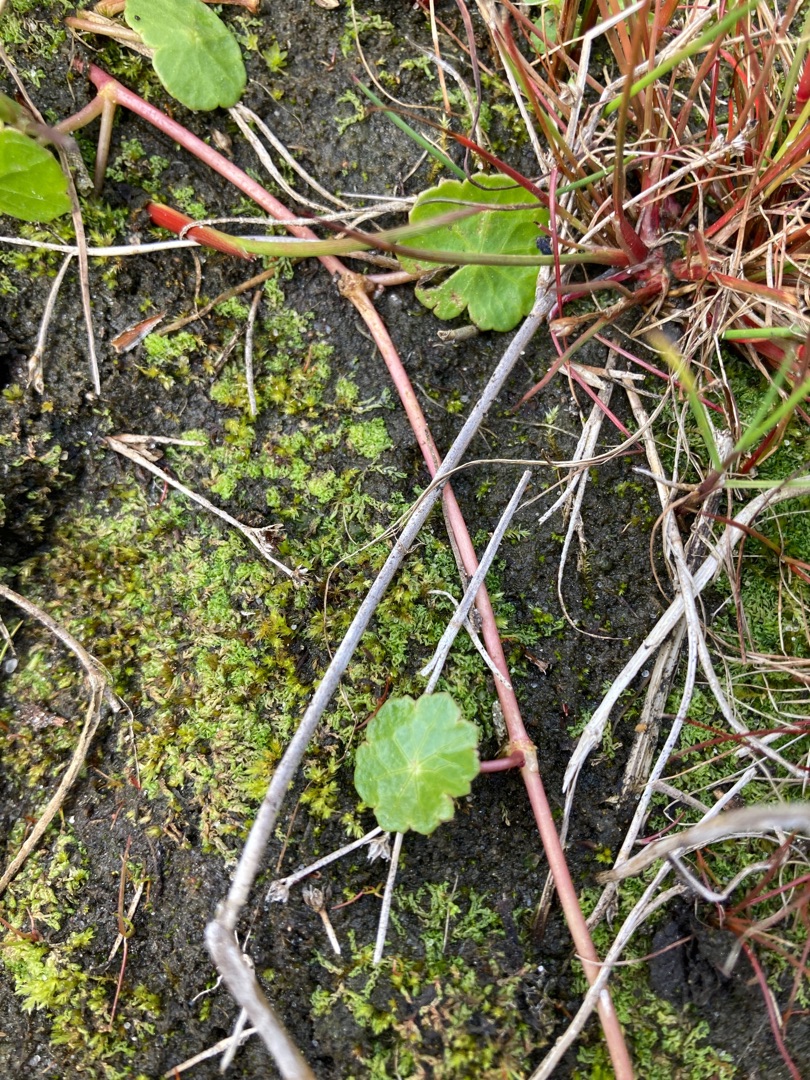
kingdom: Plantae
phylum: Tracheophyta
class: Magnoliopsida
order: Apiales
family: Araliaceae
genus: Hydrocotyle
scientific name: Hydrocotyle vulgaris
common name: Vandnavle
